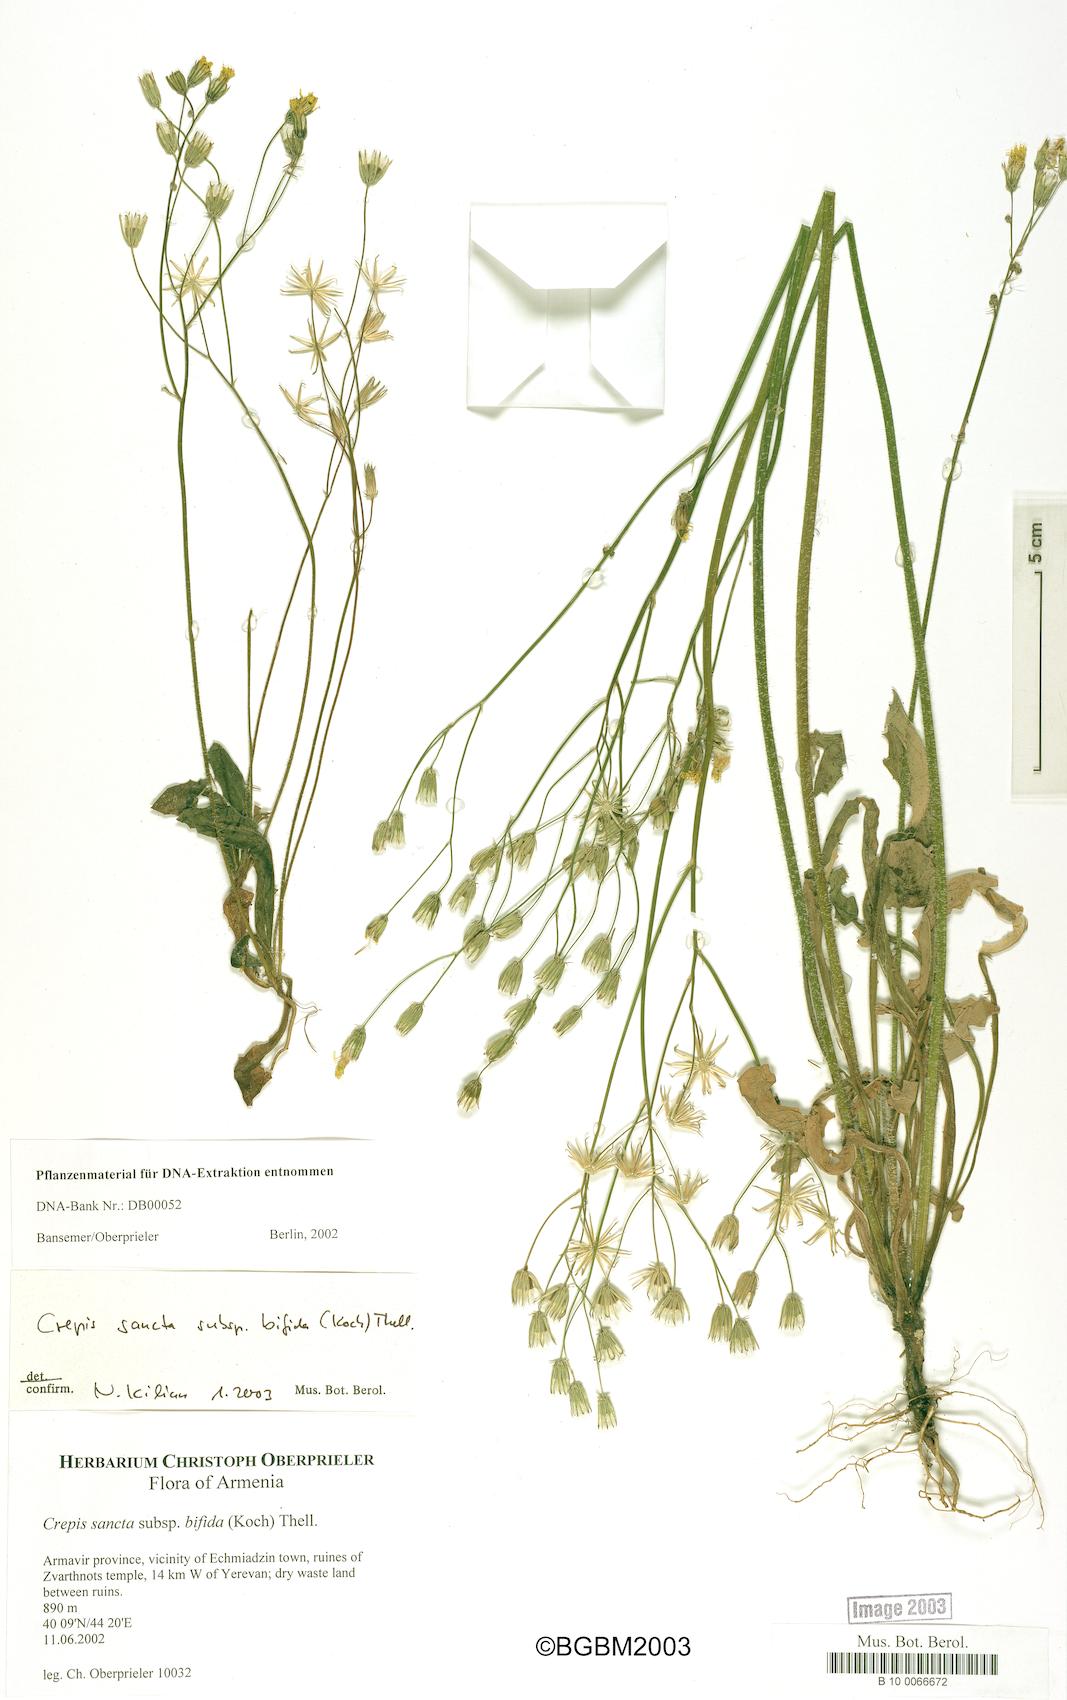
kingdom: Plantae
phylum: Tracheophyta
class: Magnoliopsida
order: Asterales
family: Asteraceae
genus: Crepis
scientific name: Crepis sancta
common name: Hawk's-beard
